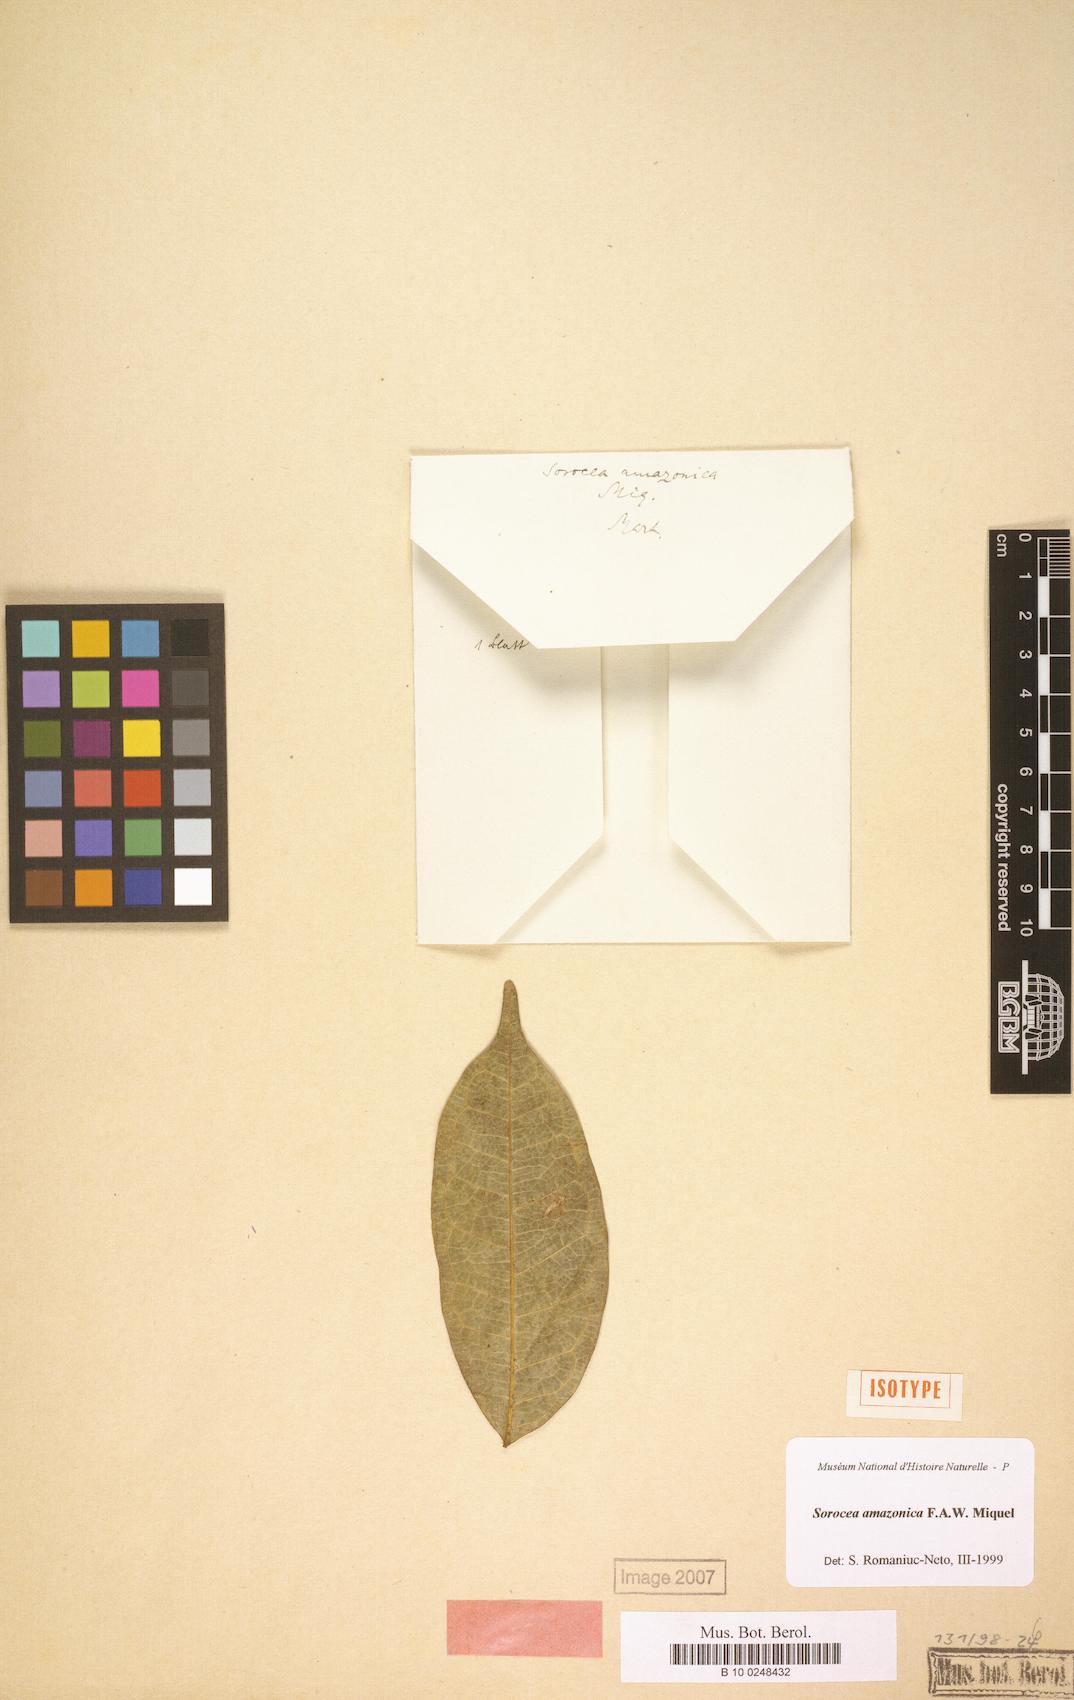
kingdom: Plantae
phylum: Tracheophyta
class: Magnoliopsida
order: Rosales
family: Moraceae
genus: Sorocea
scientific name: Sorocea muriculata
